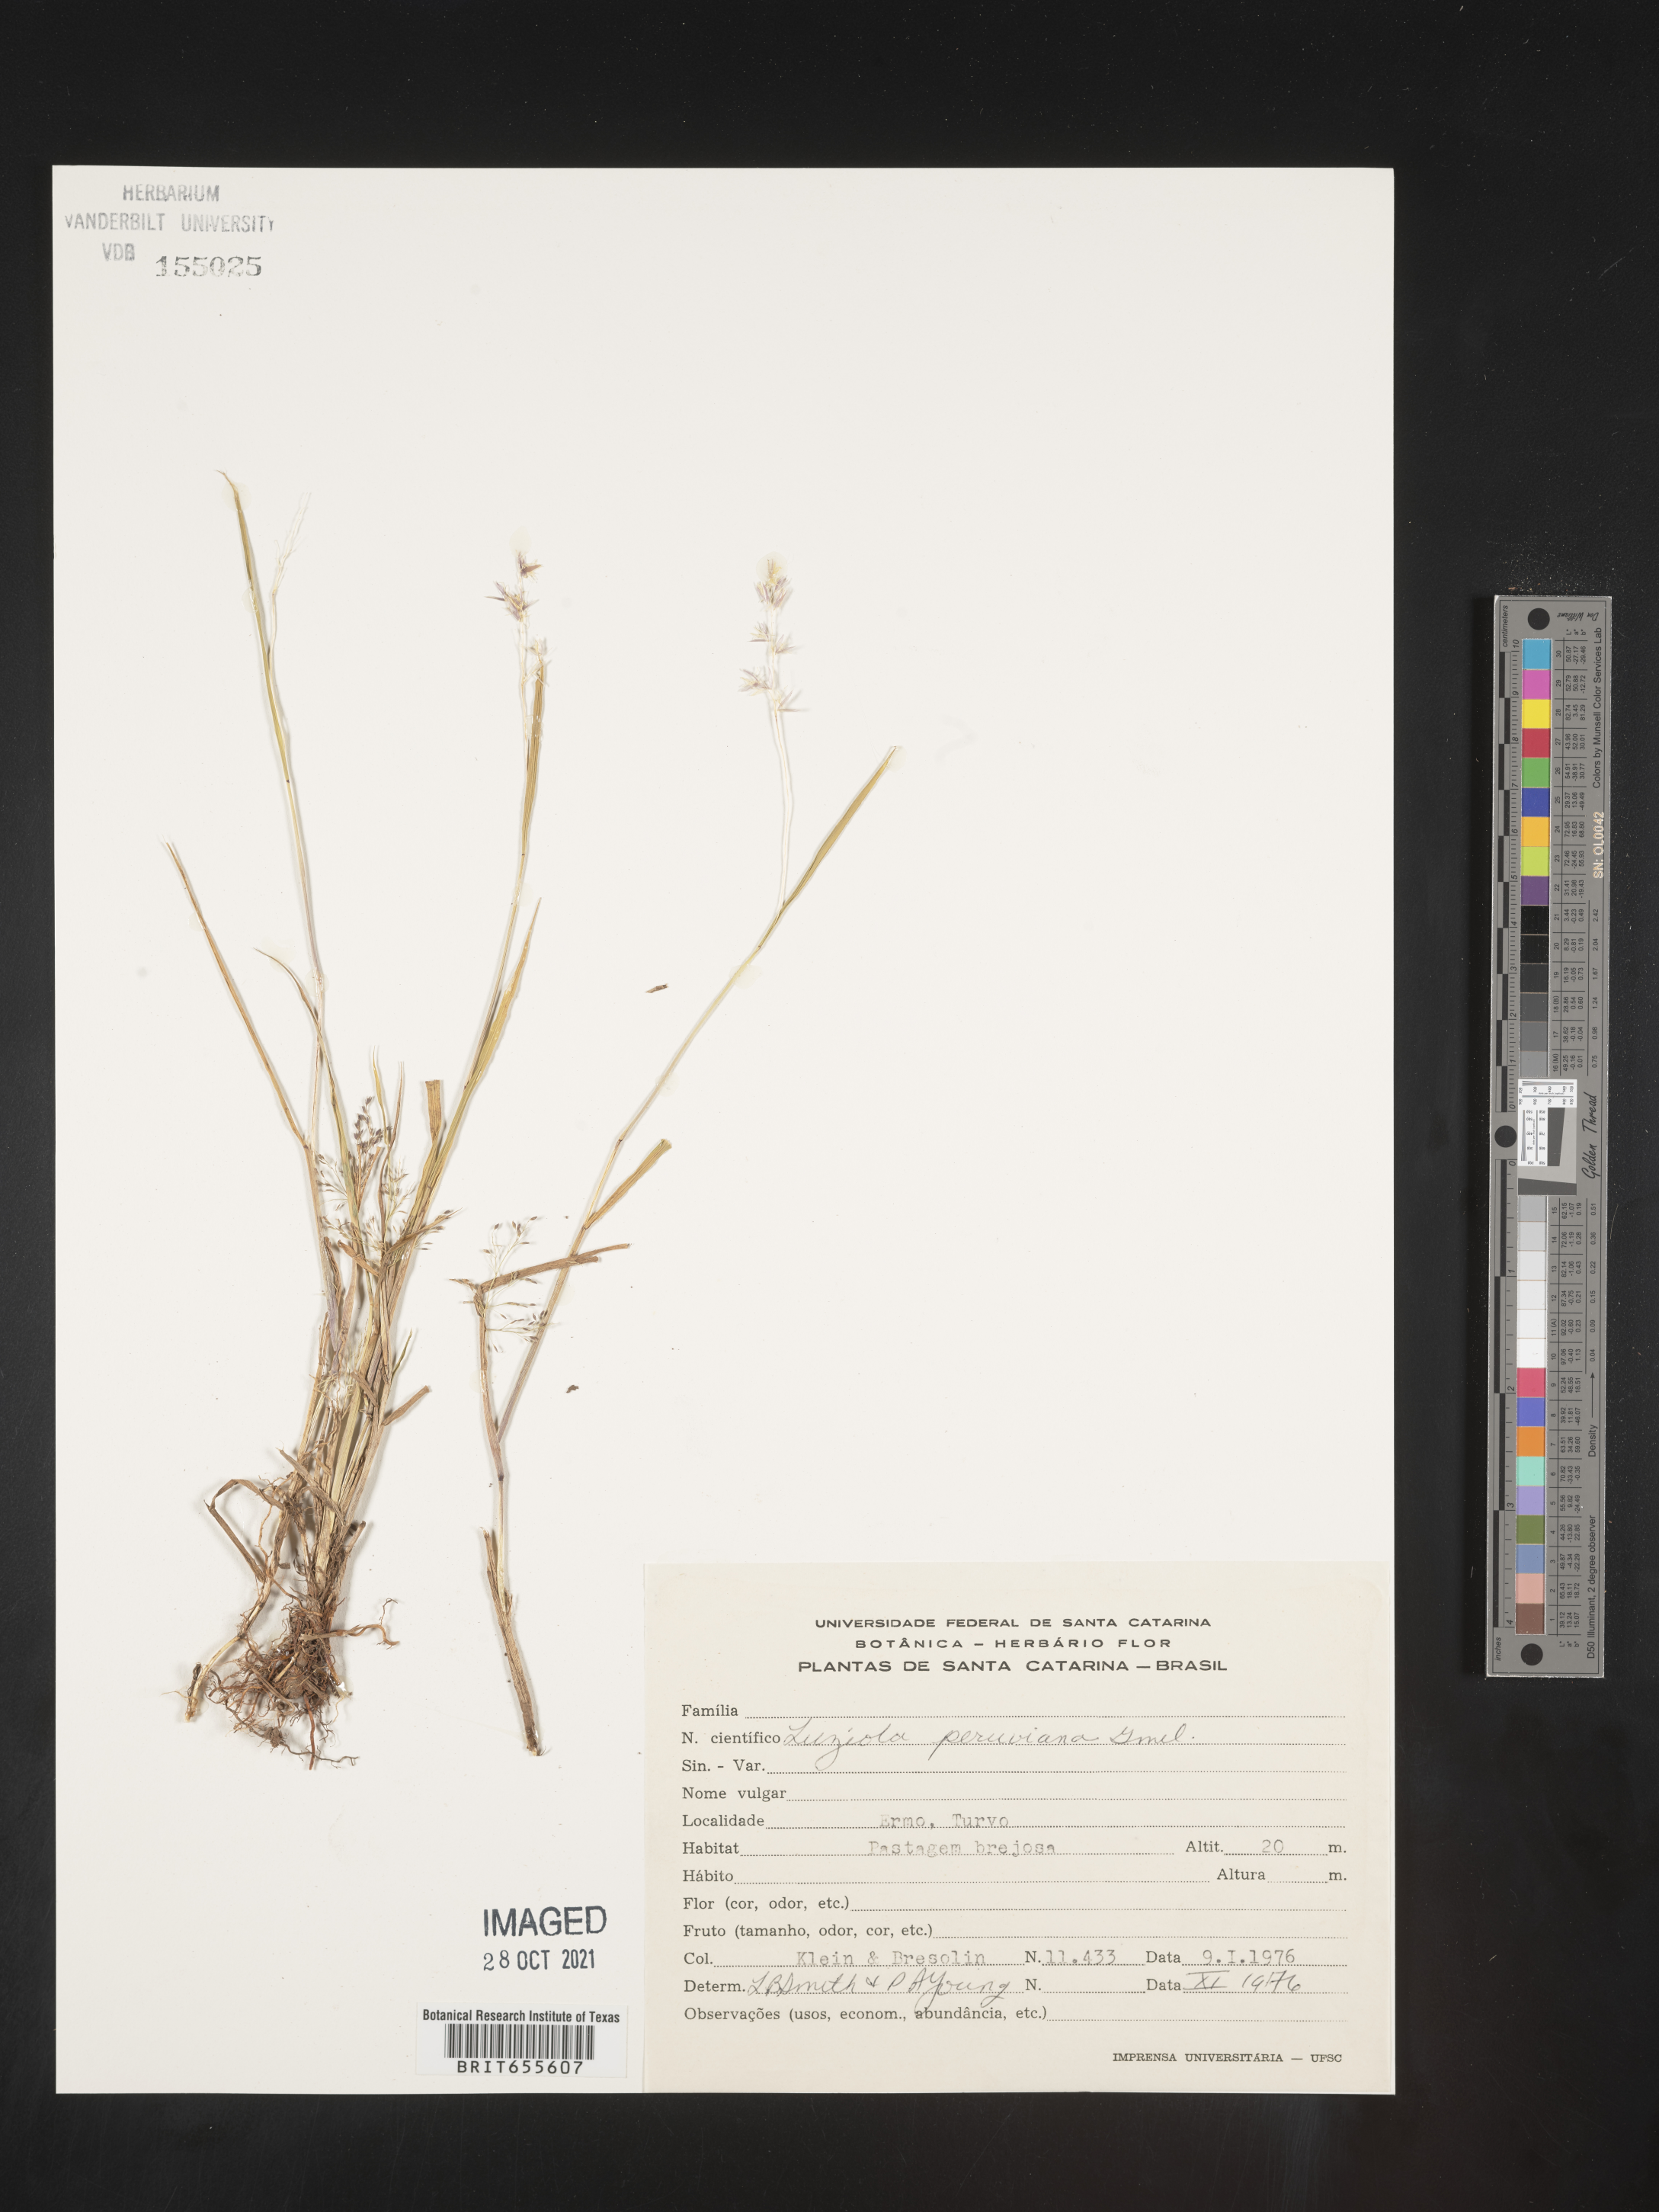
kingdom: Plantae
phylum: Tracheophyta
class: Liliopsida
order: Poales
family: Poaceae
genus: Luziola
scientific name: Luziola
